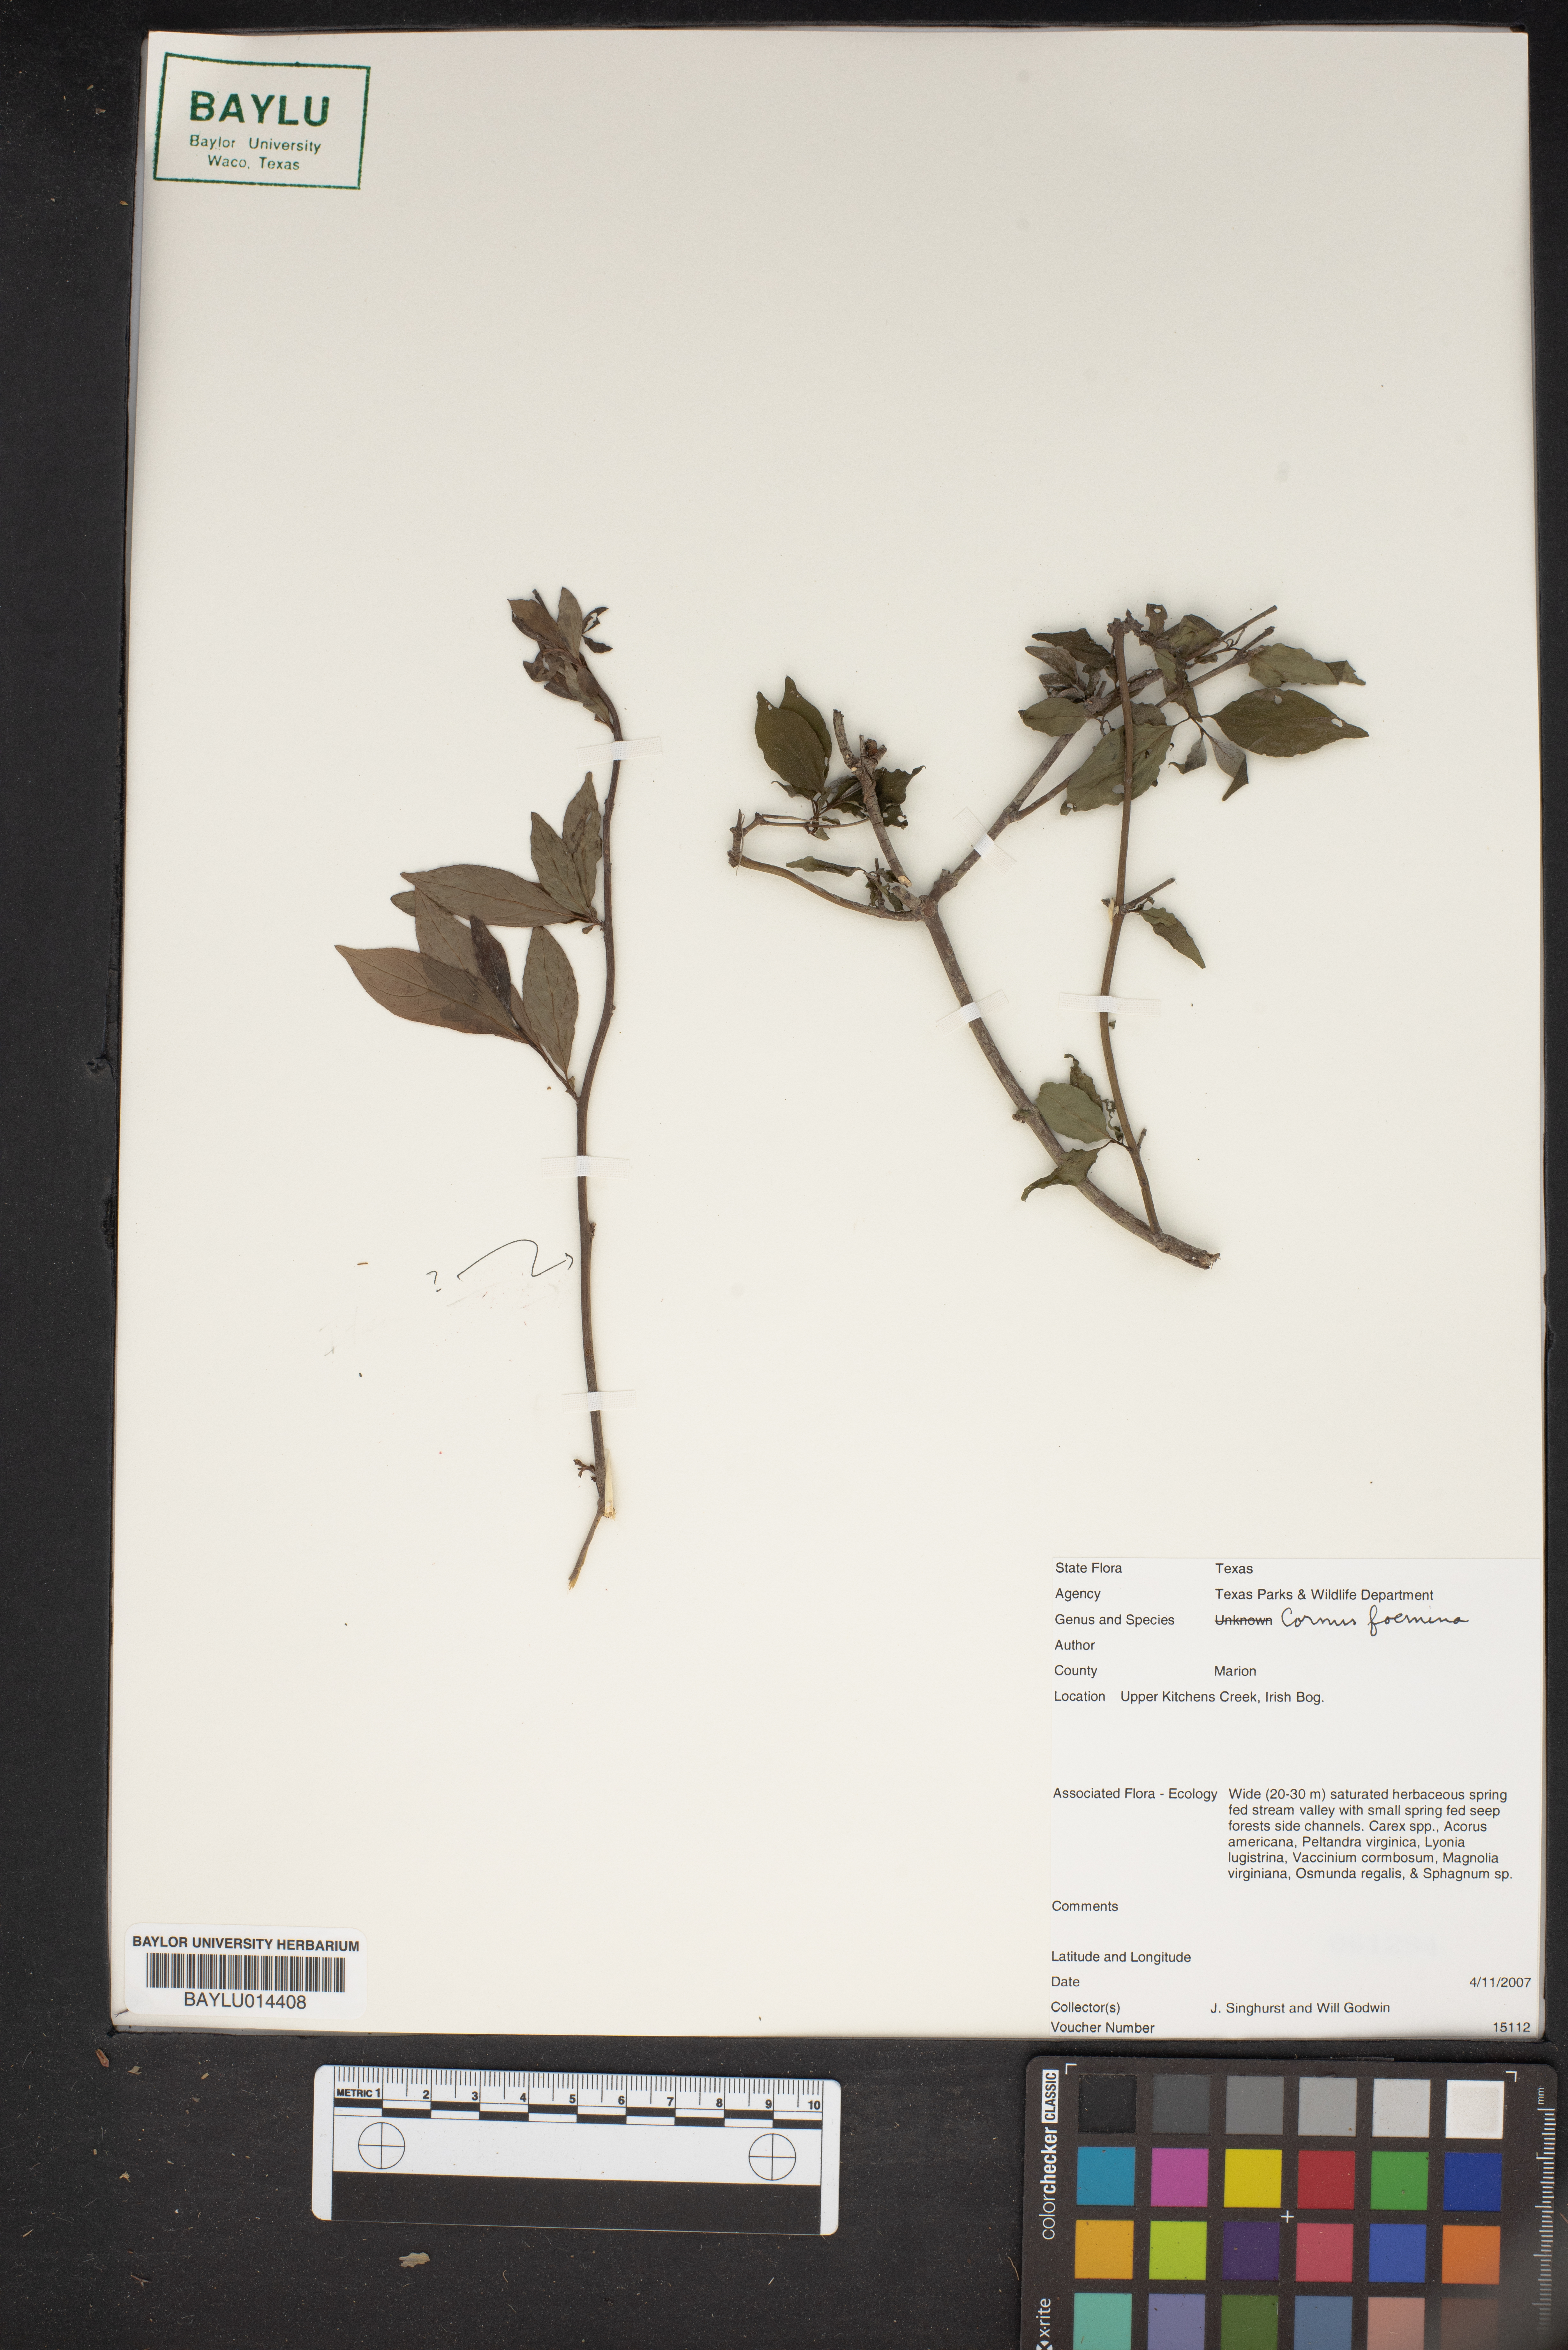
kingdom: Plantae
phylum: Tracheophyta
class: Magnoliopsida
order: Cornales
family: Cornaceae
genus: Cornus
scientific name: Cornus foemina
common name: Swamp dogwood
